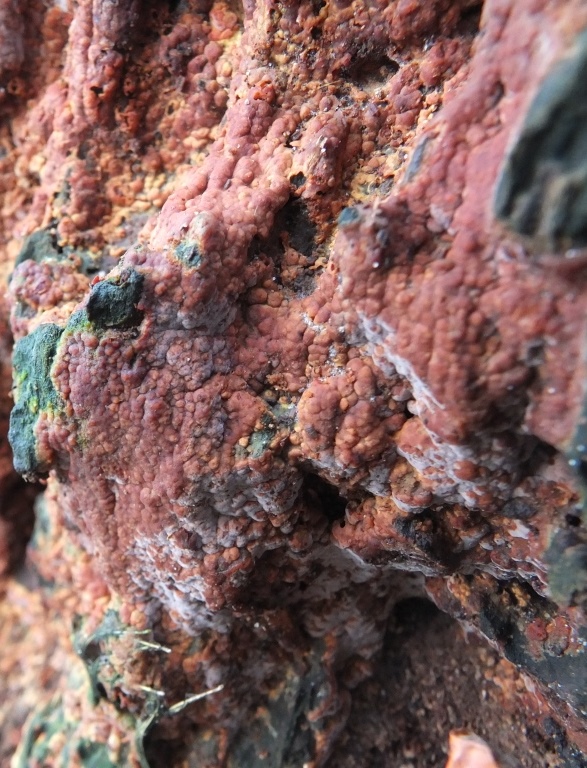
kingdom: Fungi
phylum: Basidiomycota
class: Agaricomycetes
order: Russulales
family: Peniophoraceae
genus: Gloiothele
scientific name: Gloiothele lactescens
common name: bitter olieskind
